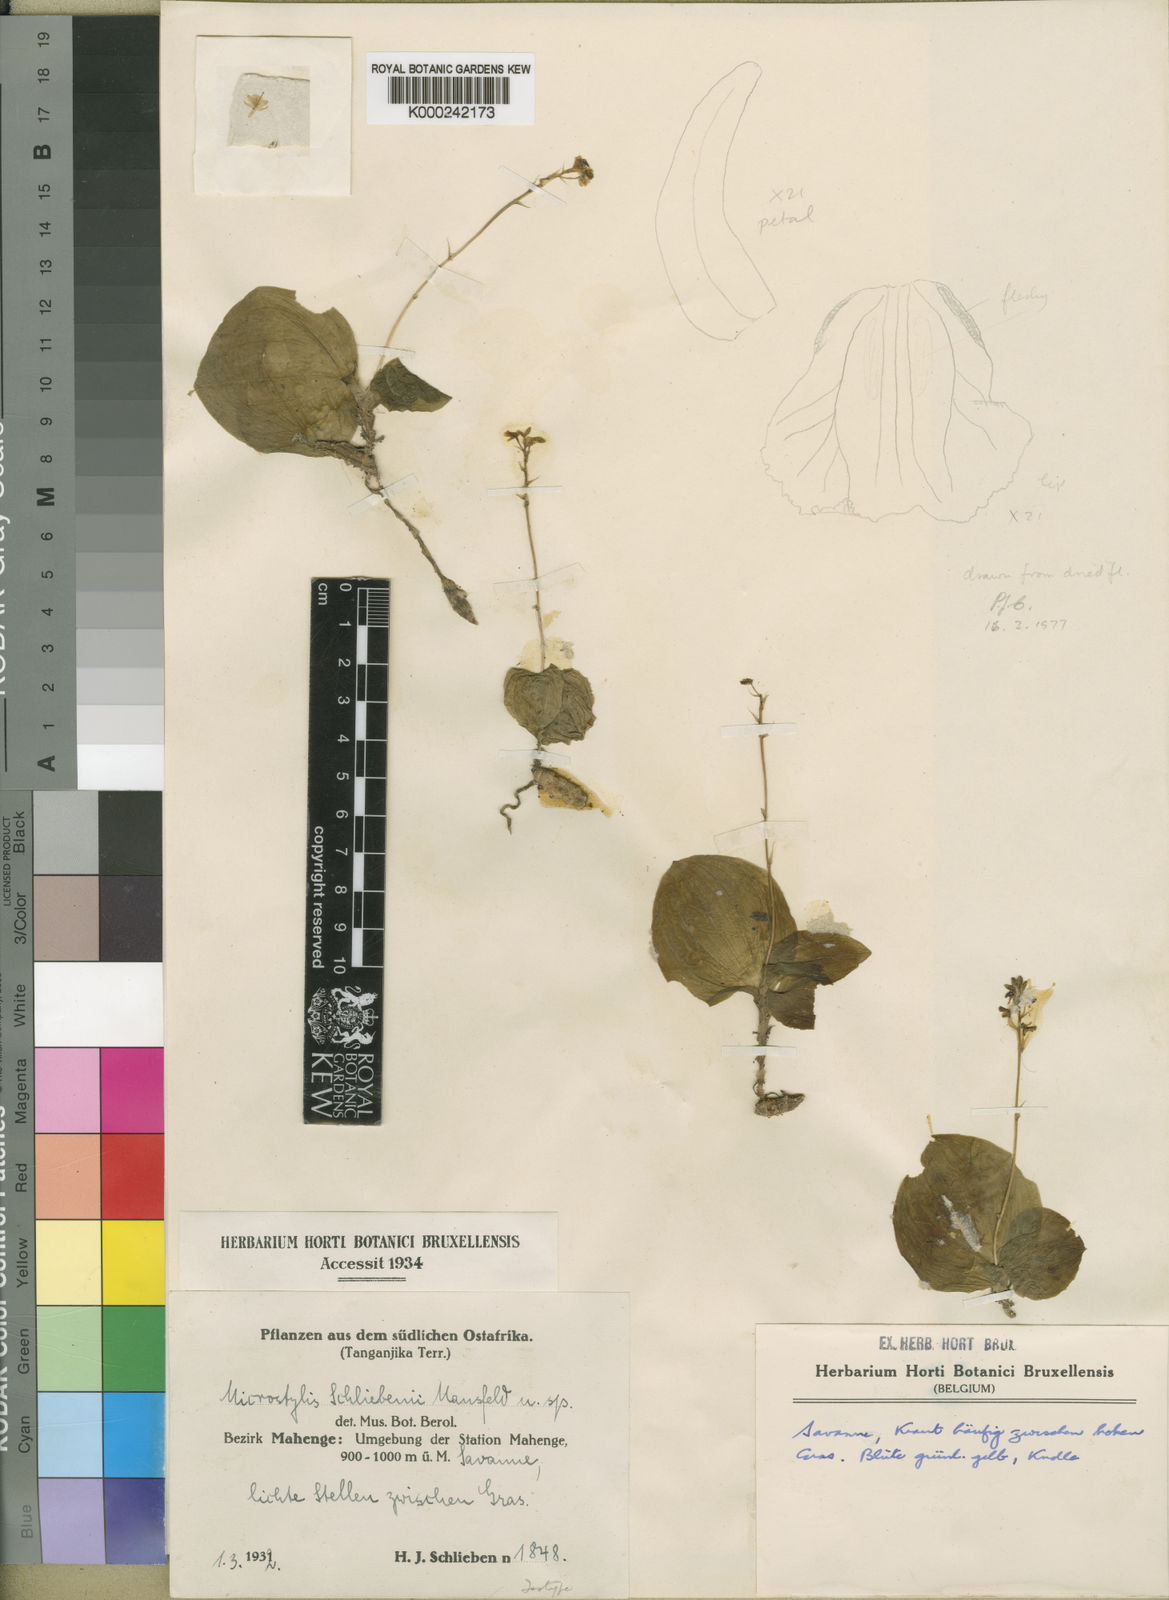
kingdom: Plantae
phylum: Tracheophyta
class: Liliopsida
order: Asparagales
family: Orchidaceae
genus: Malaxis
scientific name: Malaxis schliebenii
